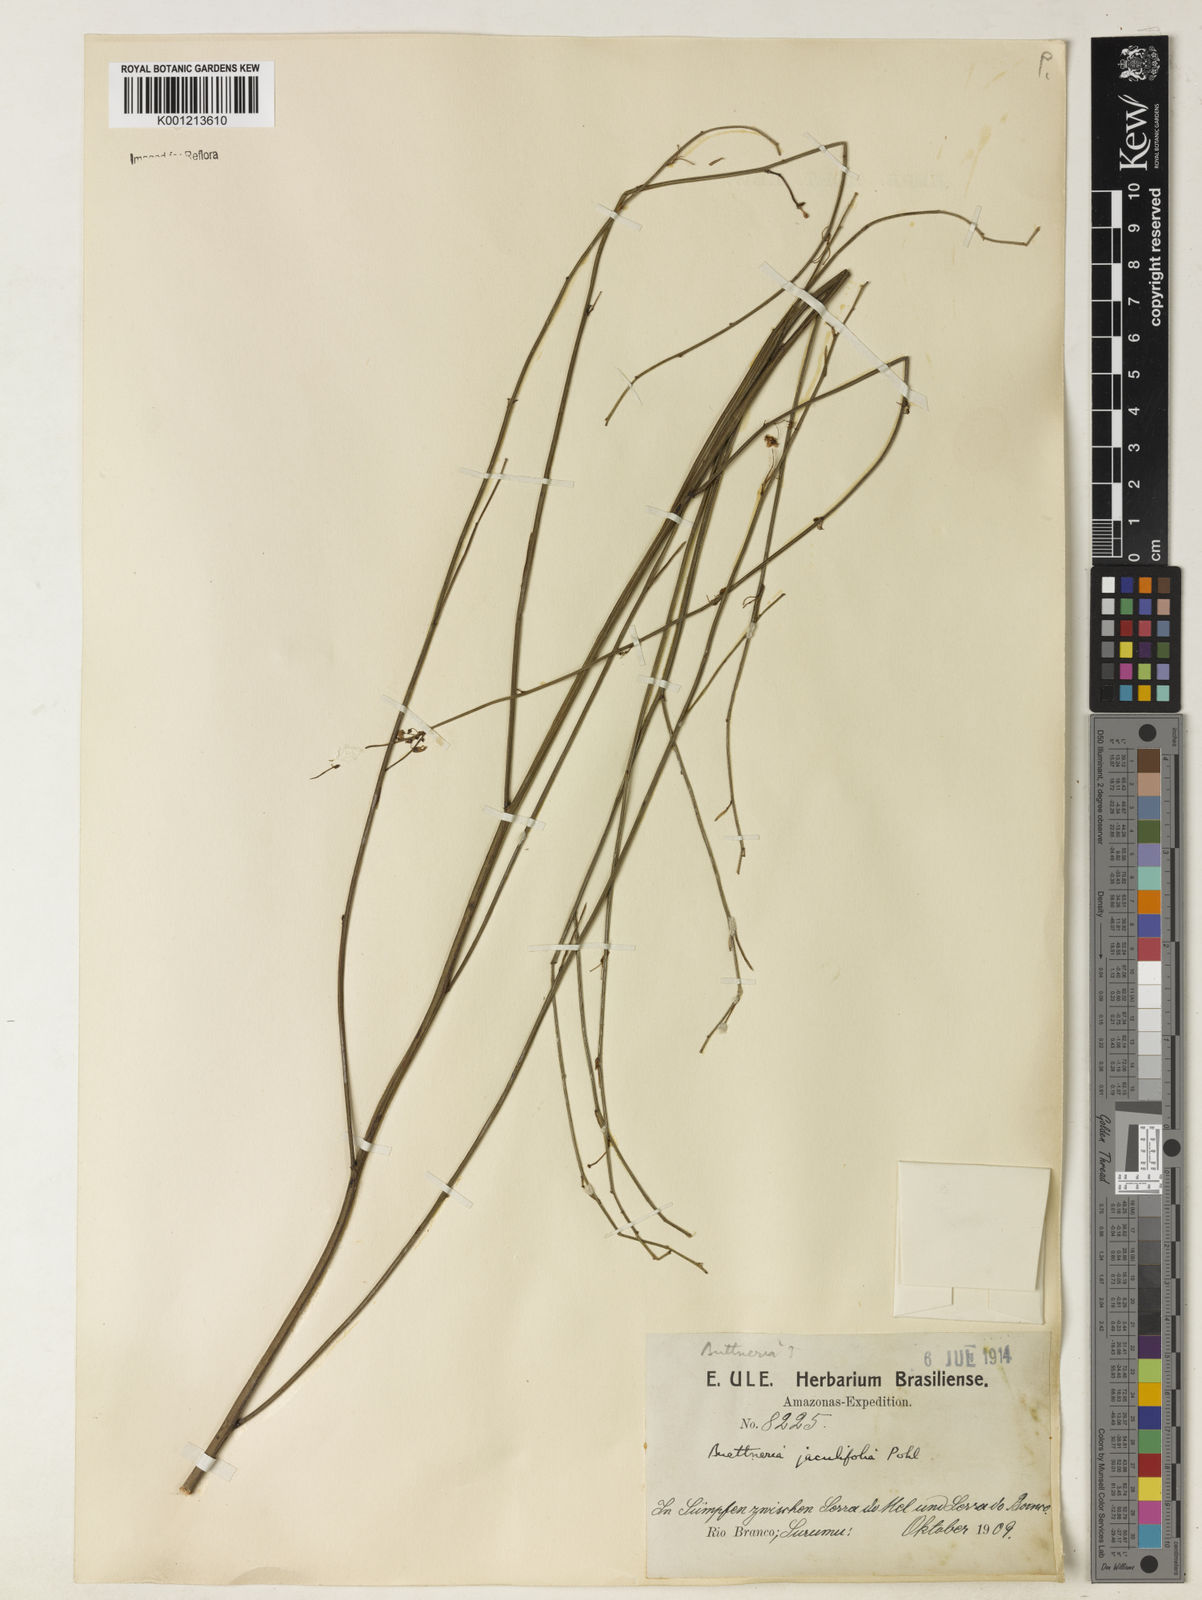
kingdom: Plantae
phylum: Tracheophyta
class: Magnoliopsida
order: Malvales
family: Malvaceae
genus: Byttneria
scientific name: Byttneria jaculifolia
